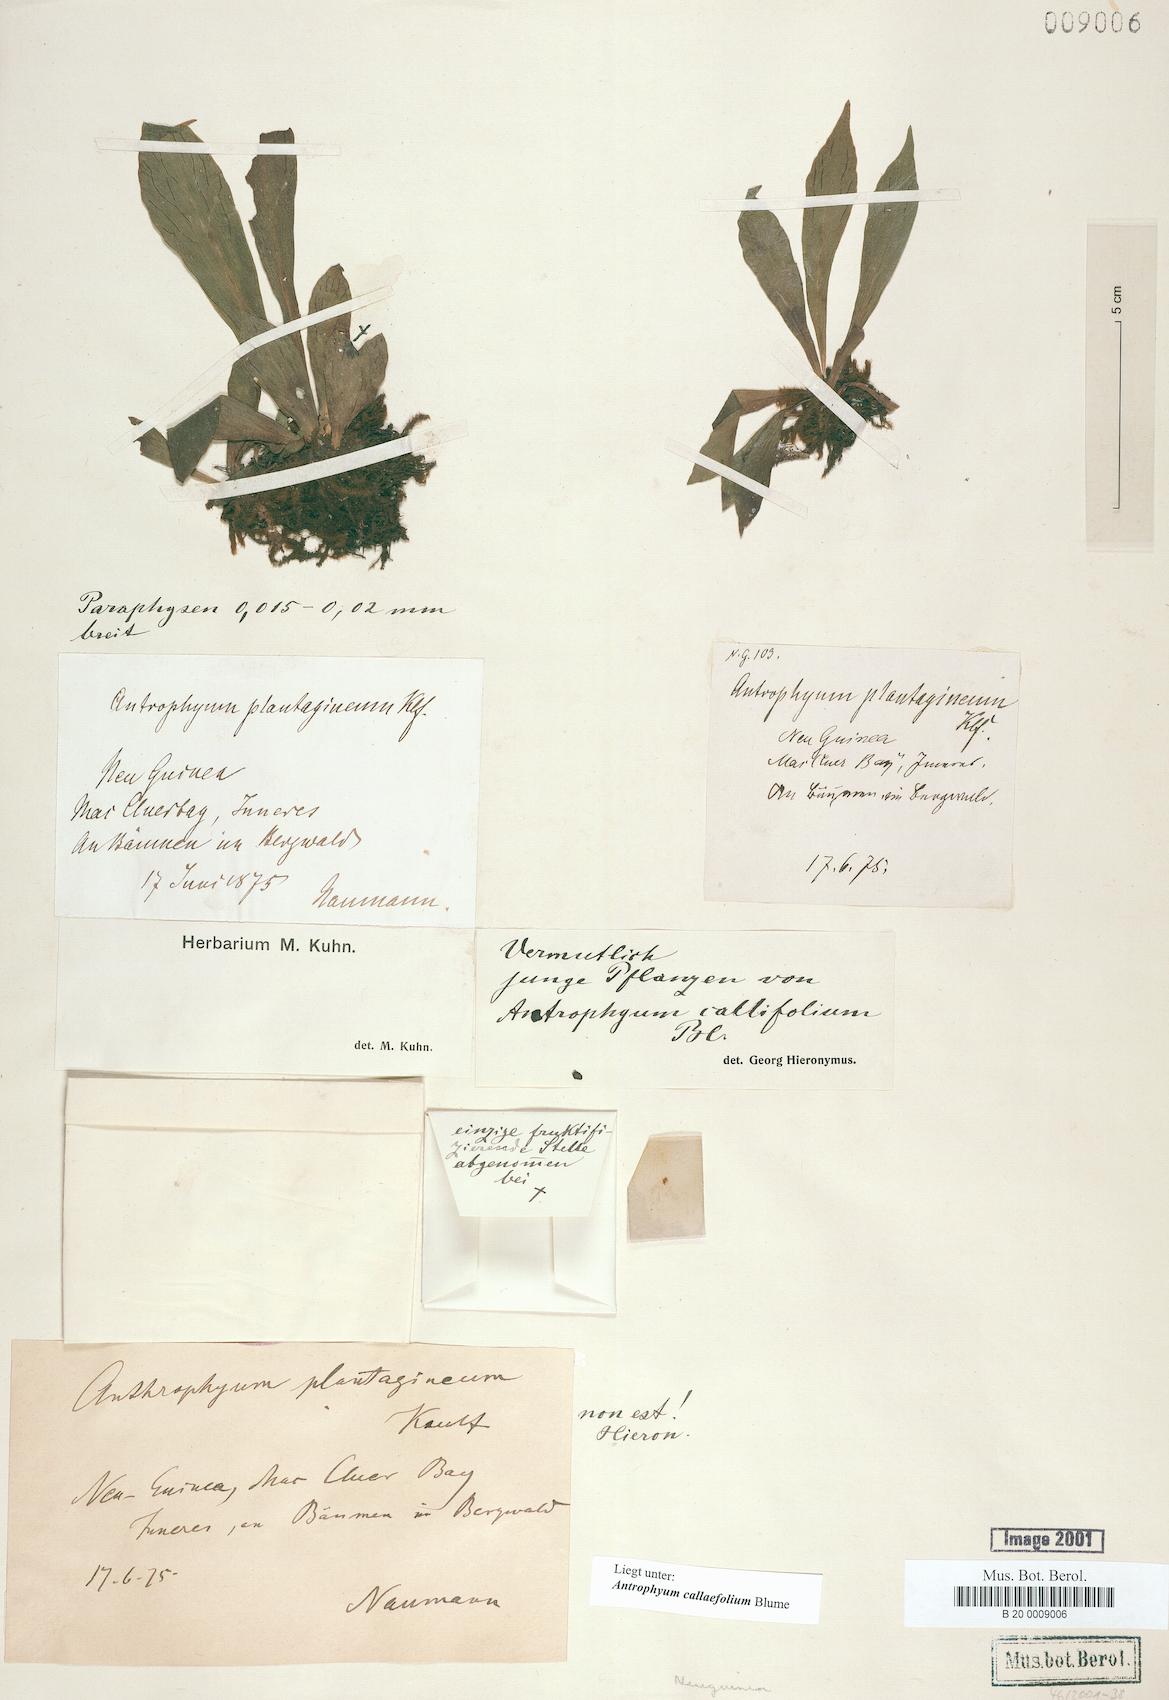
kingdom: Plantae
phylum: Tracheophyta
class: Polypodiopsida
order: Polypodiales
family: Pteridaceae
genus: Antrophyum
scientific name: Antrophyum callifolium
